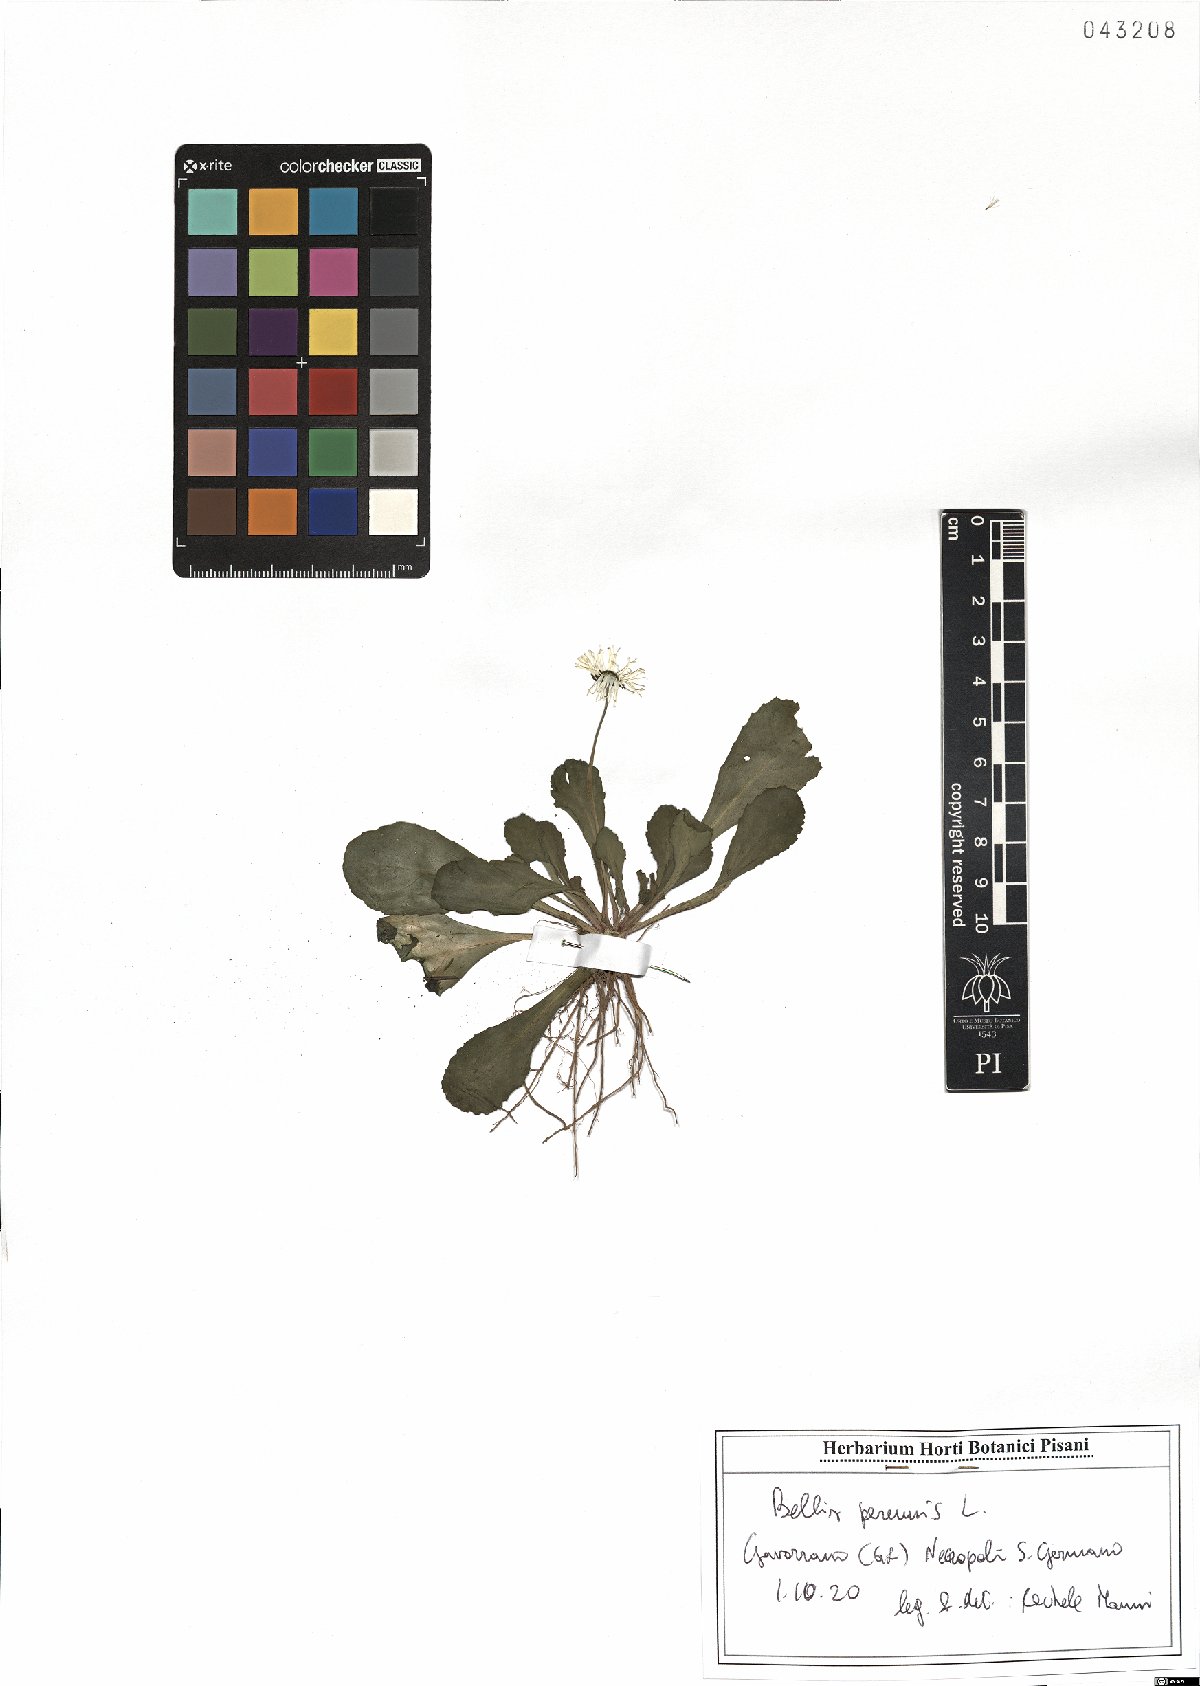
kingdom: Plantae
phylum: Tracheophyta
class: Magnoliopsida
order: Asterales
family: Asteraceae
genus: Bellis
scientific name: Bellis perennis
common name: Lawndaisy
